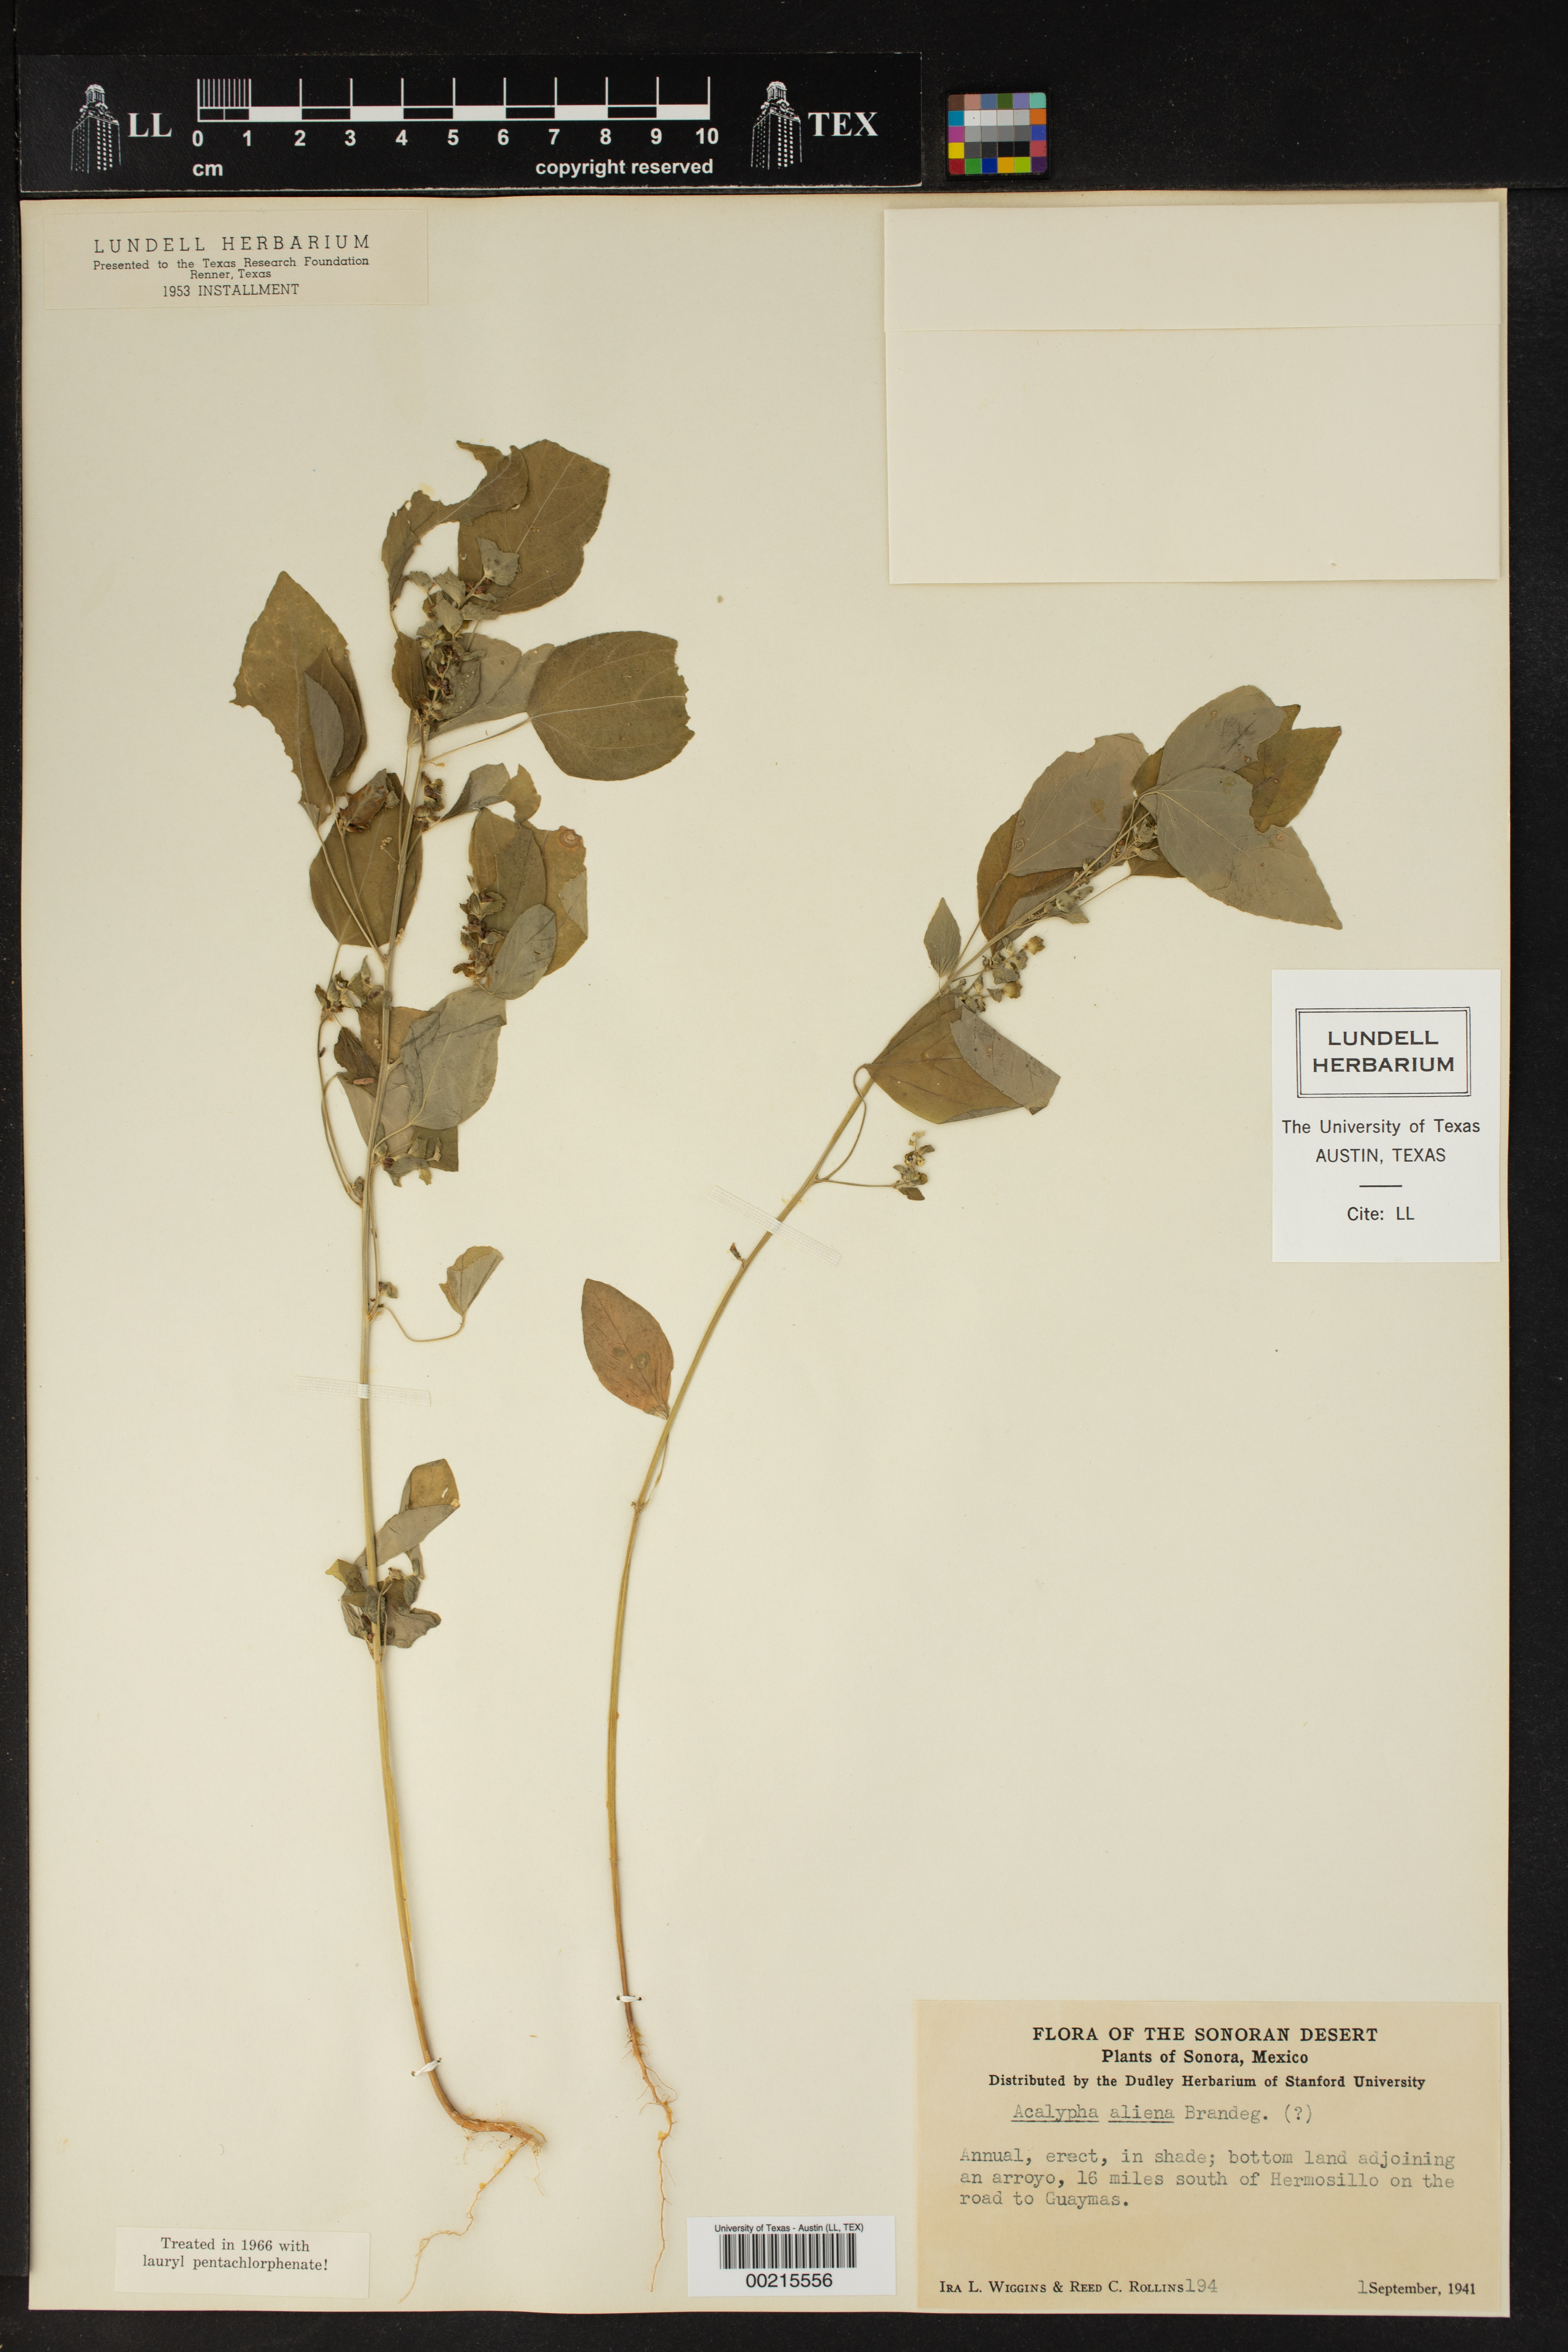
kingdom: Plantae
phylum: Tracheophyta
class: Magnoliopsida
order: Malpighiales
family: Euphorbiaceae
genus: Acalypha
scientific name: Acalypha aliena
